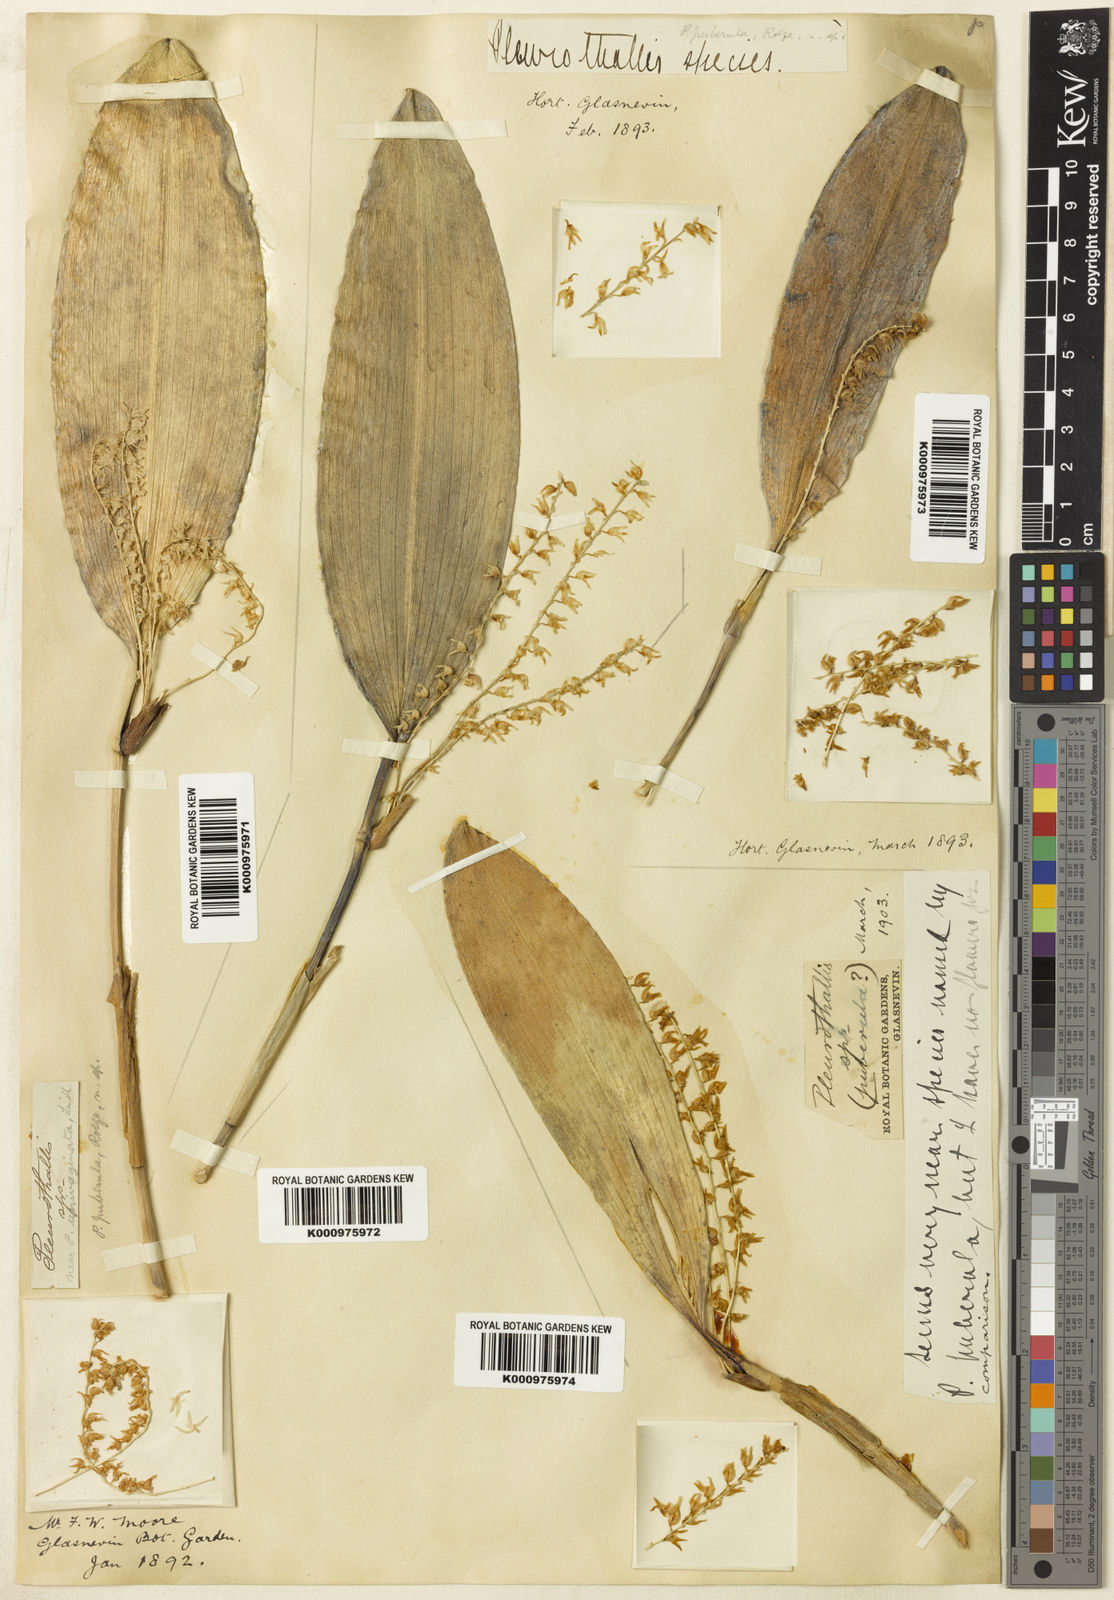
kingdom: Plantae
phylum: Tracheophyta
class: Liliopsida
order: Asparagales
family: Orchidaceae
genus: Stelis
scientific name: Stelis gelida
